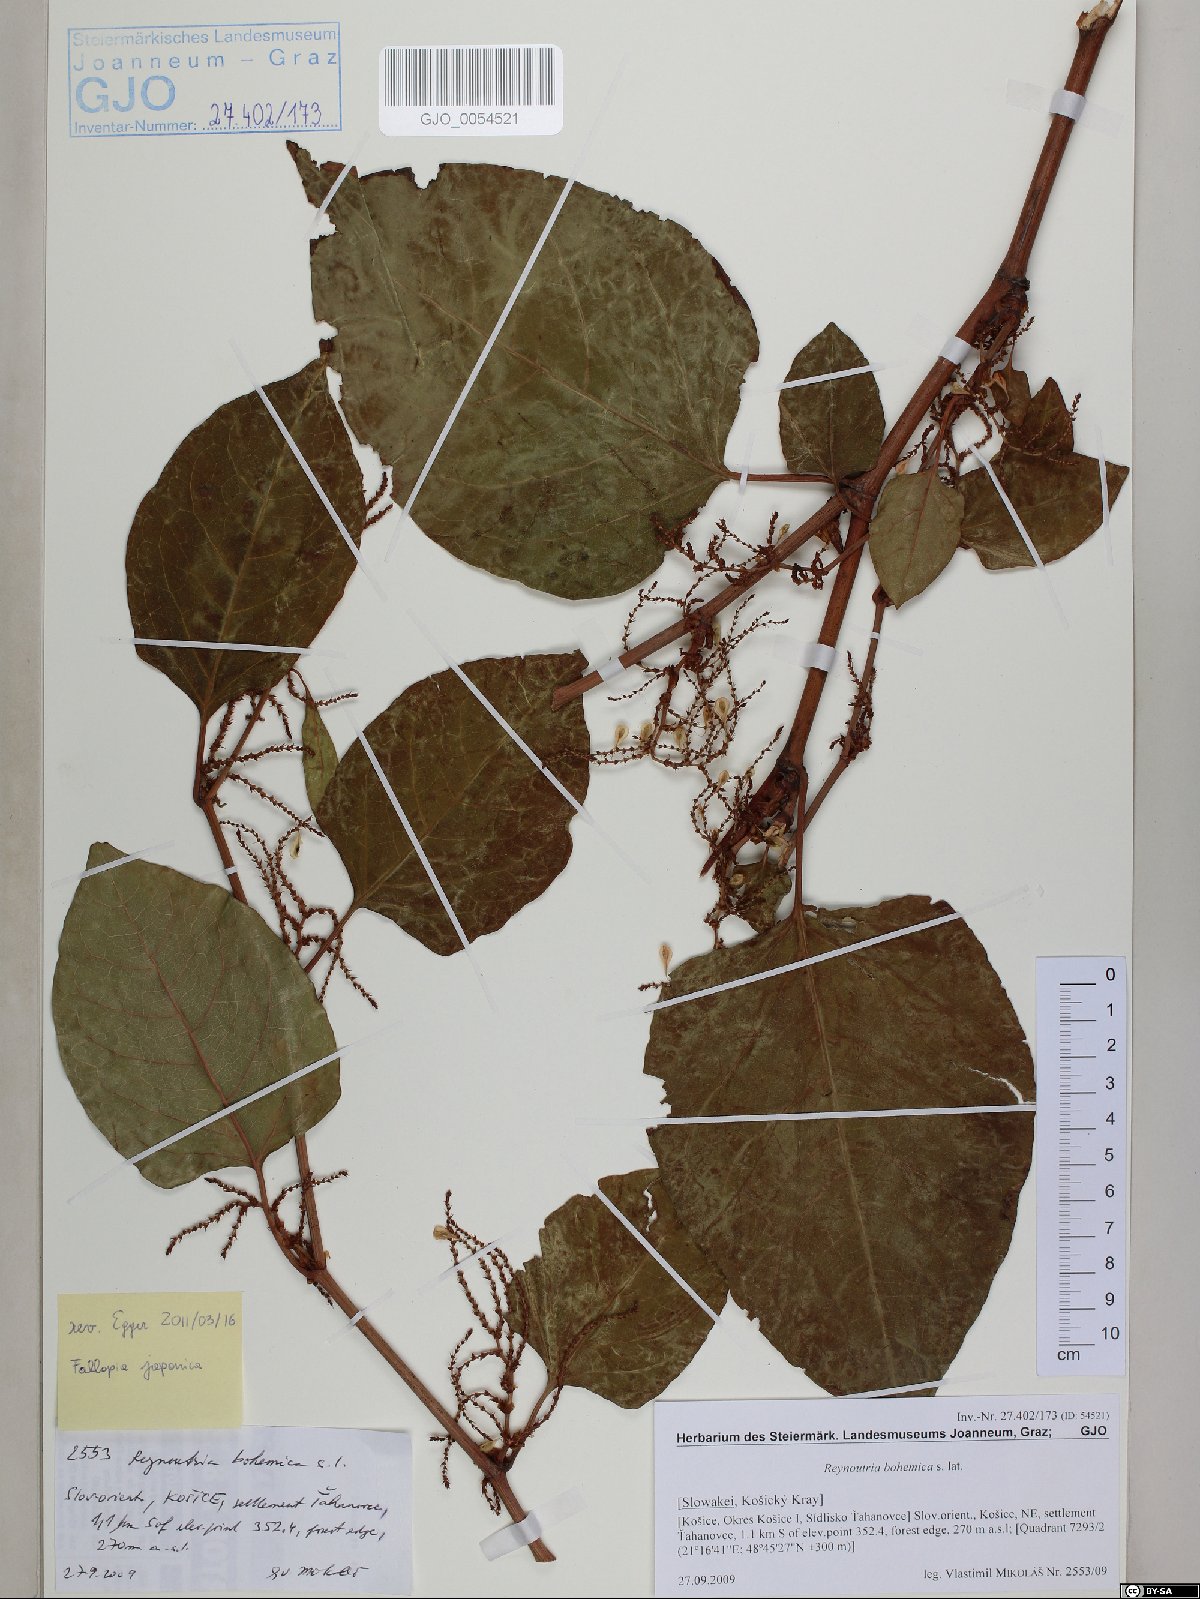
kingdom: Plantae
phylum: Tracheophyta
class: Magnoliopsida
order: Caryophyllales
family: Polygonaceae
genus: Reynoutria
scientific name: Reynoutria bohemica
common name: Bohemian knotweed
